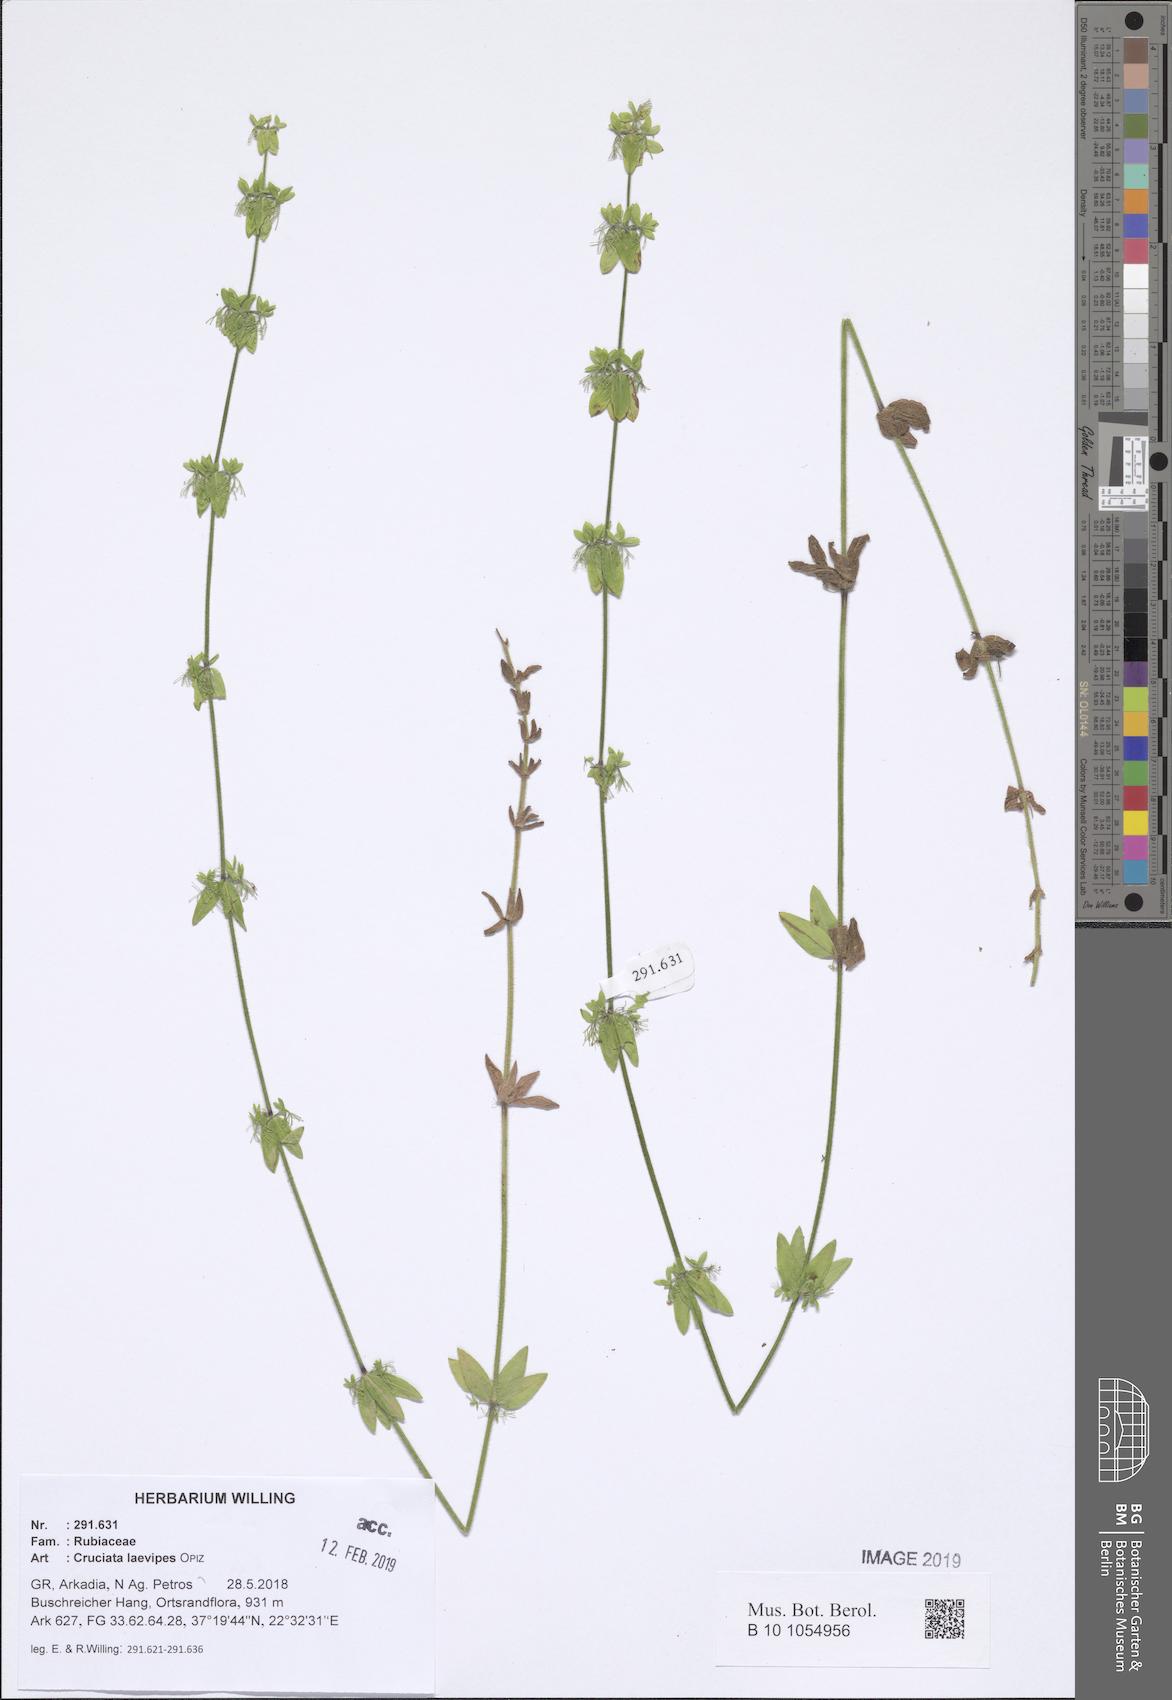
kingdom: Plantae
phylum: Tracheophyta
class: Magnoliopsida
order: Gentianales
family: Rubiaceae
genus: Cruciata
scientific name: Cruciata laevipes
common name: Crosswort
